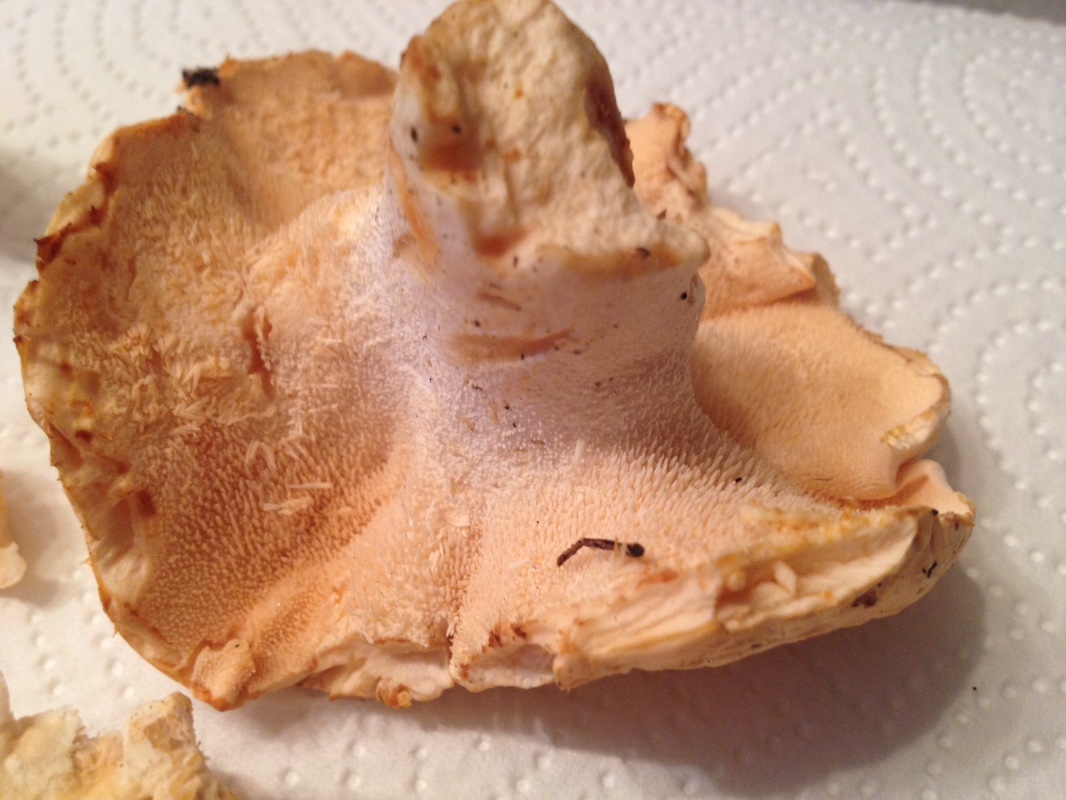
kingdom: Fungi
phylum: Basidiomycota
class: Agaricomycetes
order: Cantharellales
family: Hydnaceae
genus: Hydnum
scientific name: Hydnum repandum
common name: almindelig pigsvamp
